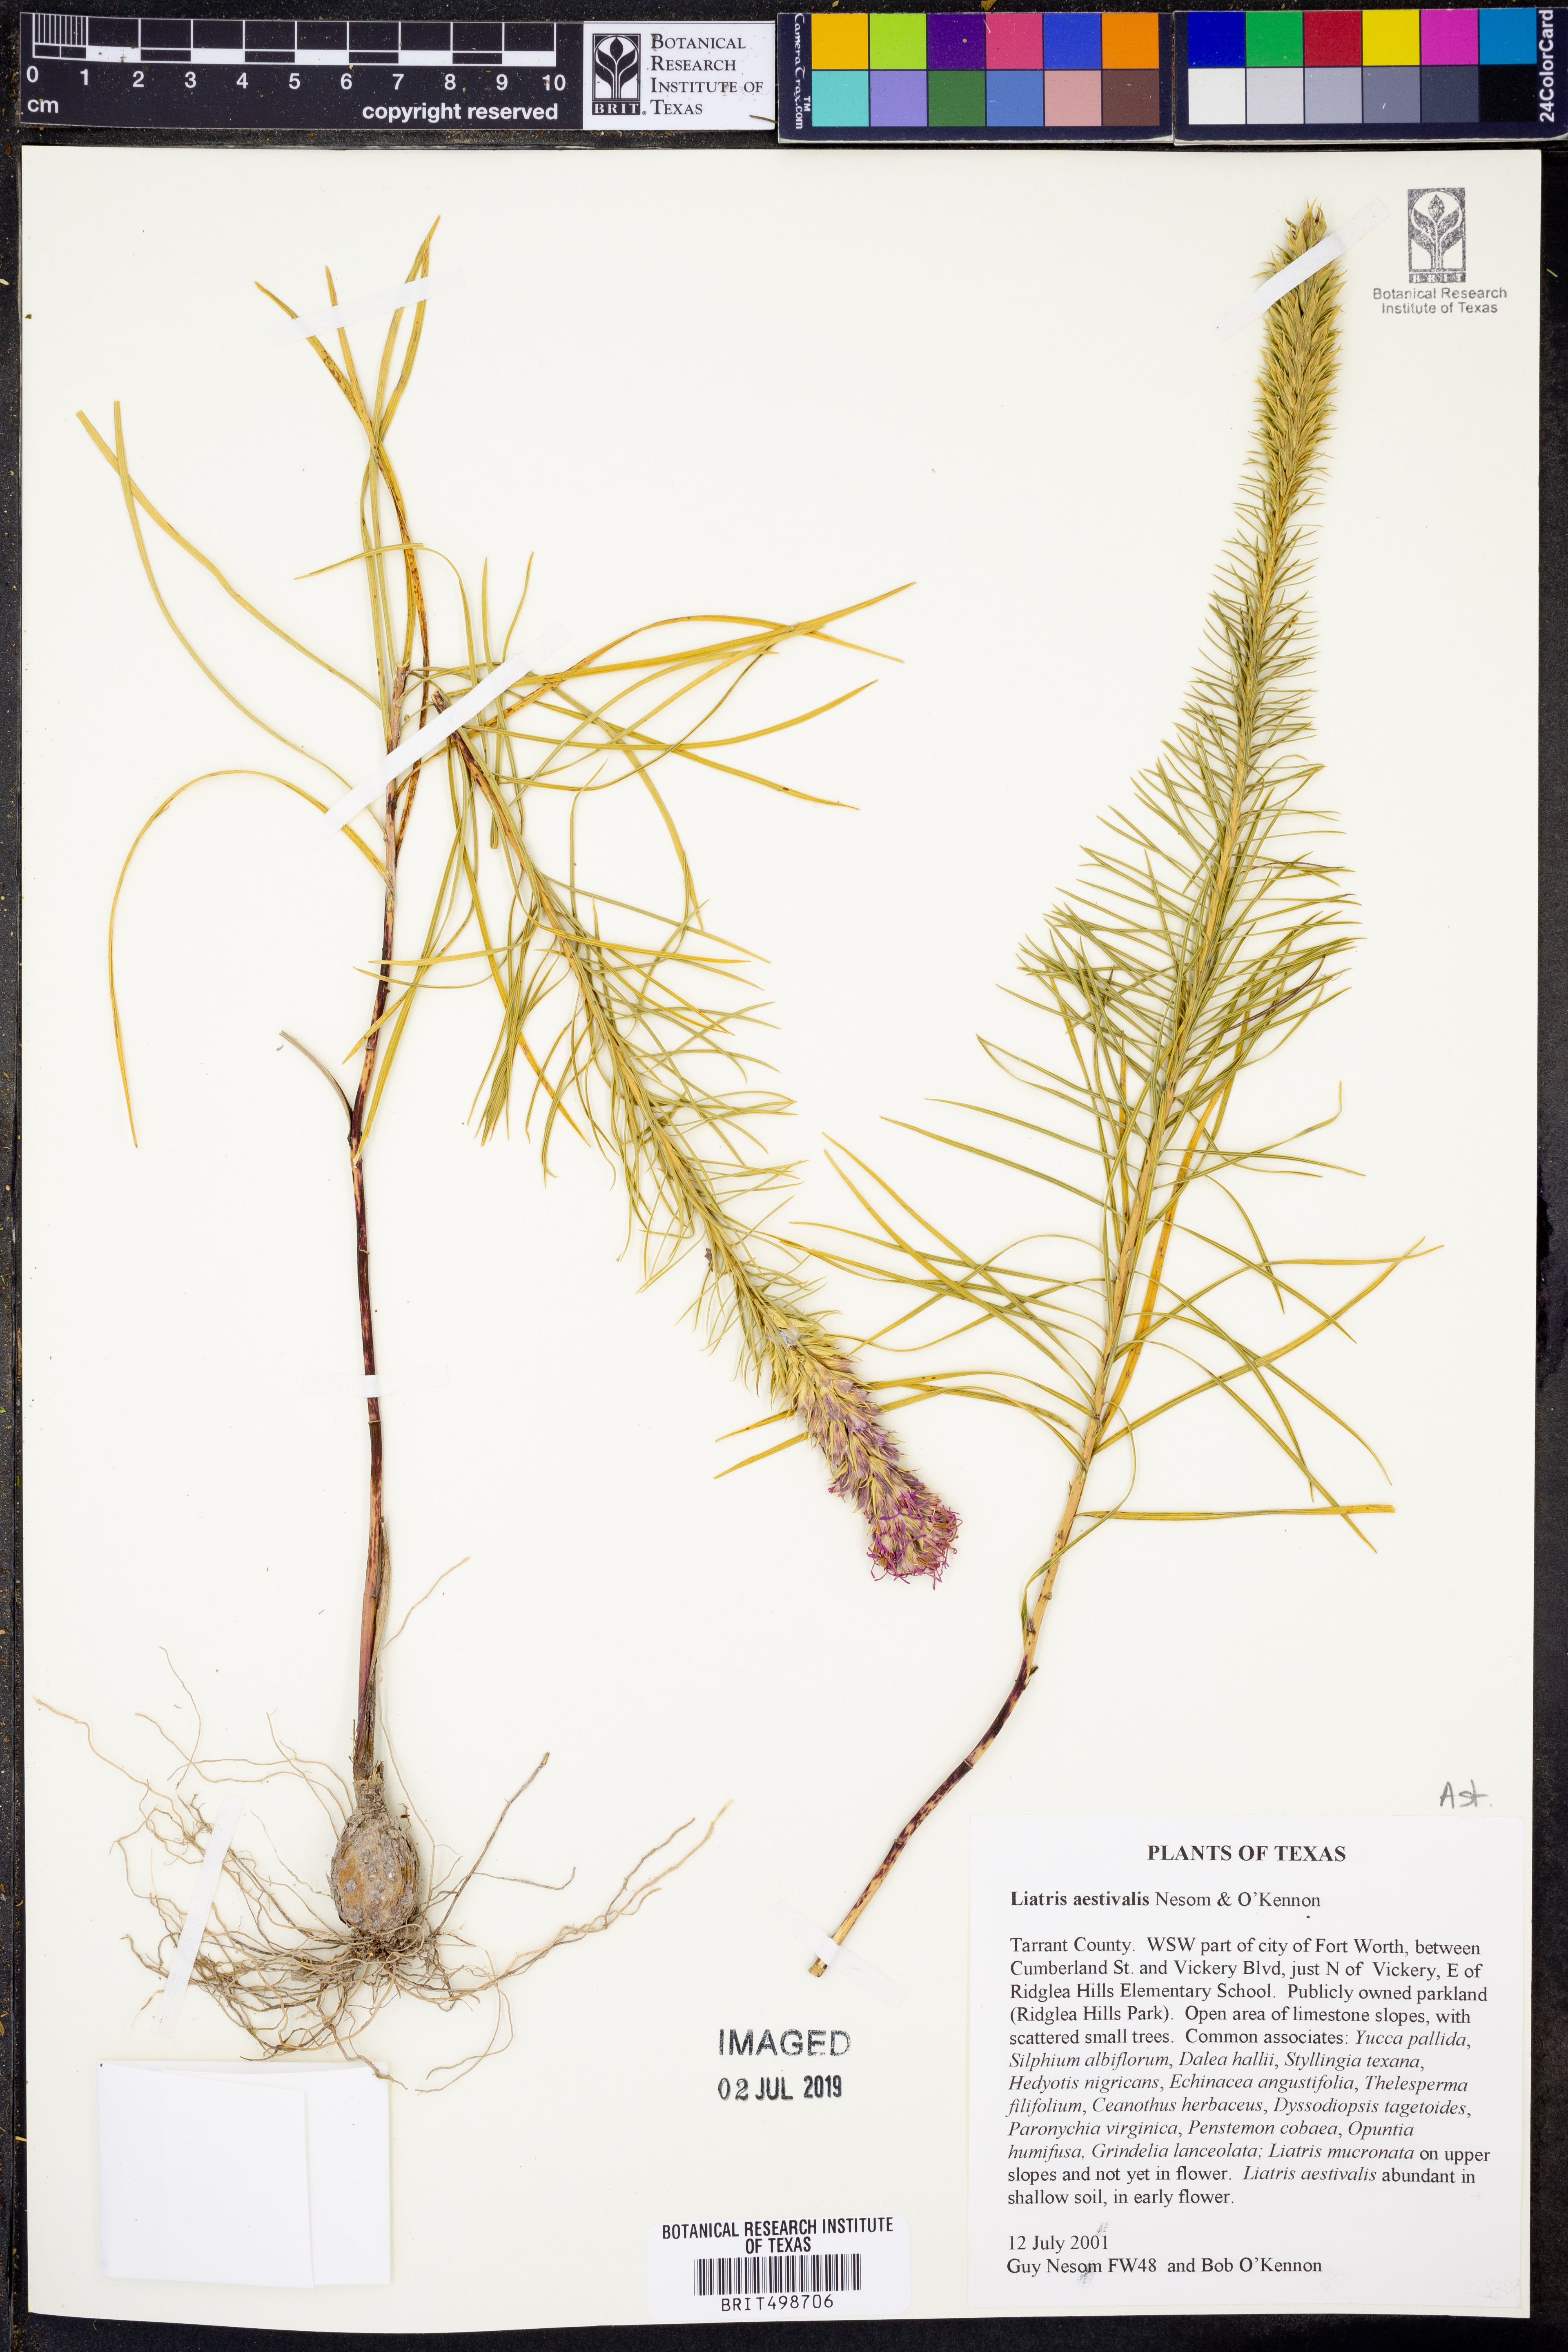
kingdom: Plantae
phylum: Tracheophyta
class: Magnoliopsida
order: Asterales
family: Asteraceae
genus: Liatris
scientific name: Liatris aestivalis
